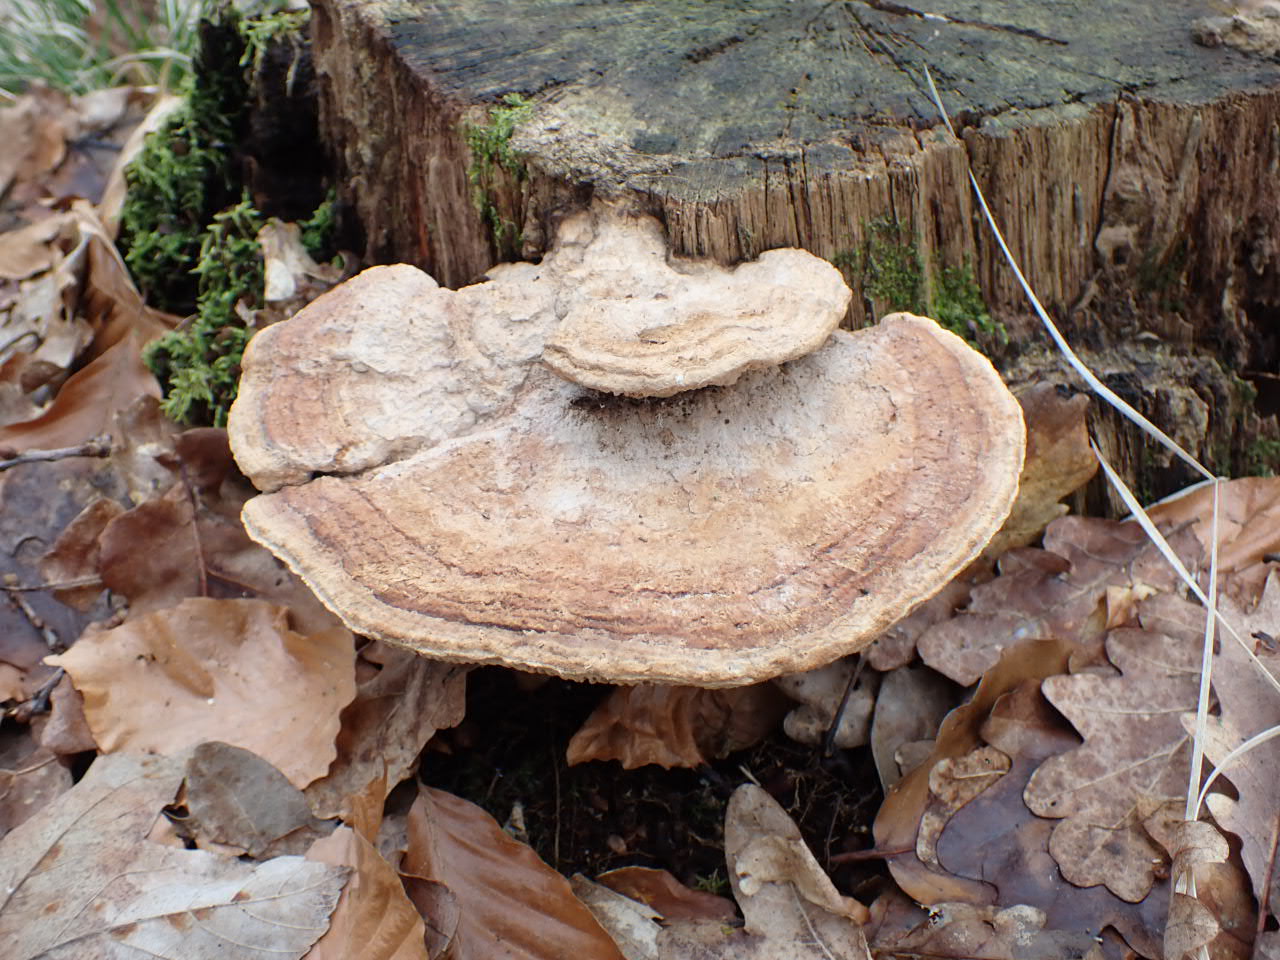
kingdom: Fungi
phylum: Basidiomycota
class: Agaricomycetes
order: Polyporales
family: Fomitopsidaceae
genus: Daedalea
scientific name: Daedalea quercina
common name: ege-labyrintsvamp
